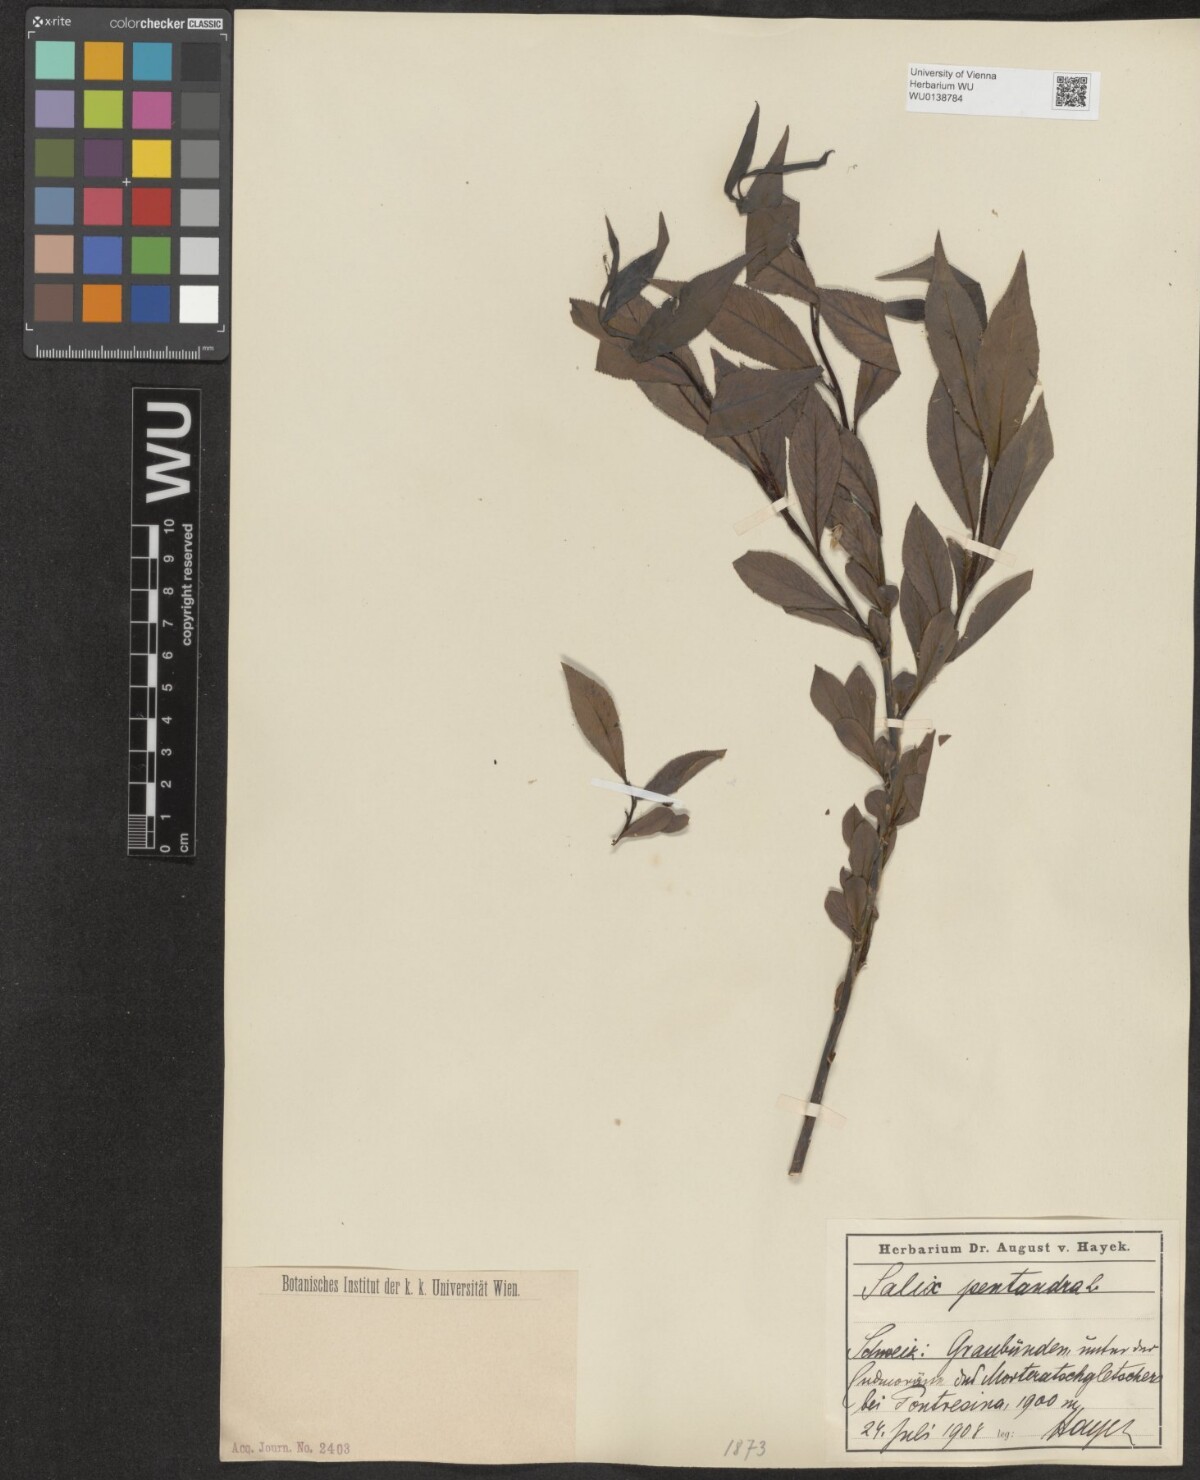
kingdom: Plantae
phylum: Tracheophyta
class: Magnoliopsida
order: Malpighiales
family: Salicaceae
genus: Salix
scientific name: Salix pentandra
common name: Bay willow
